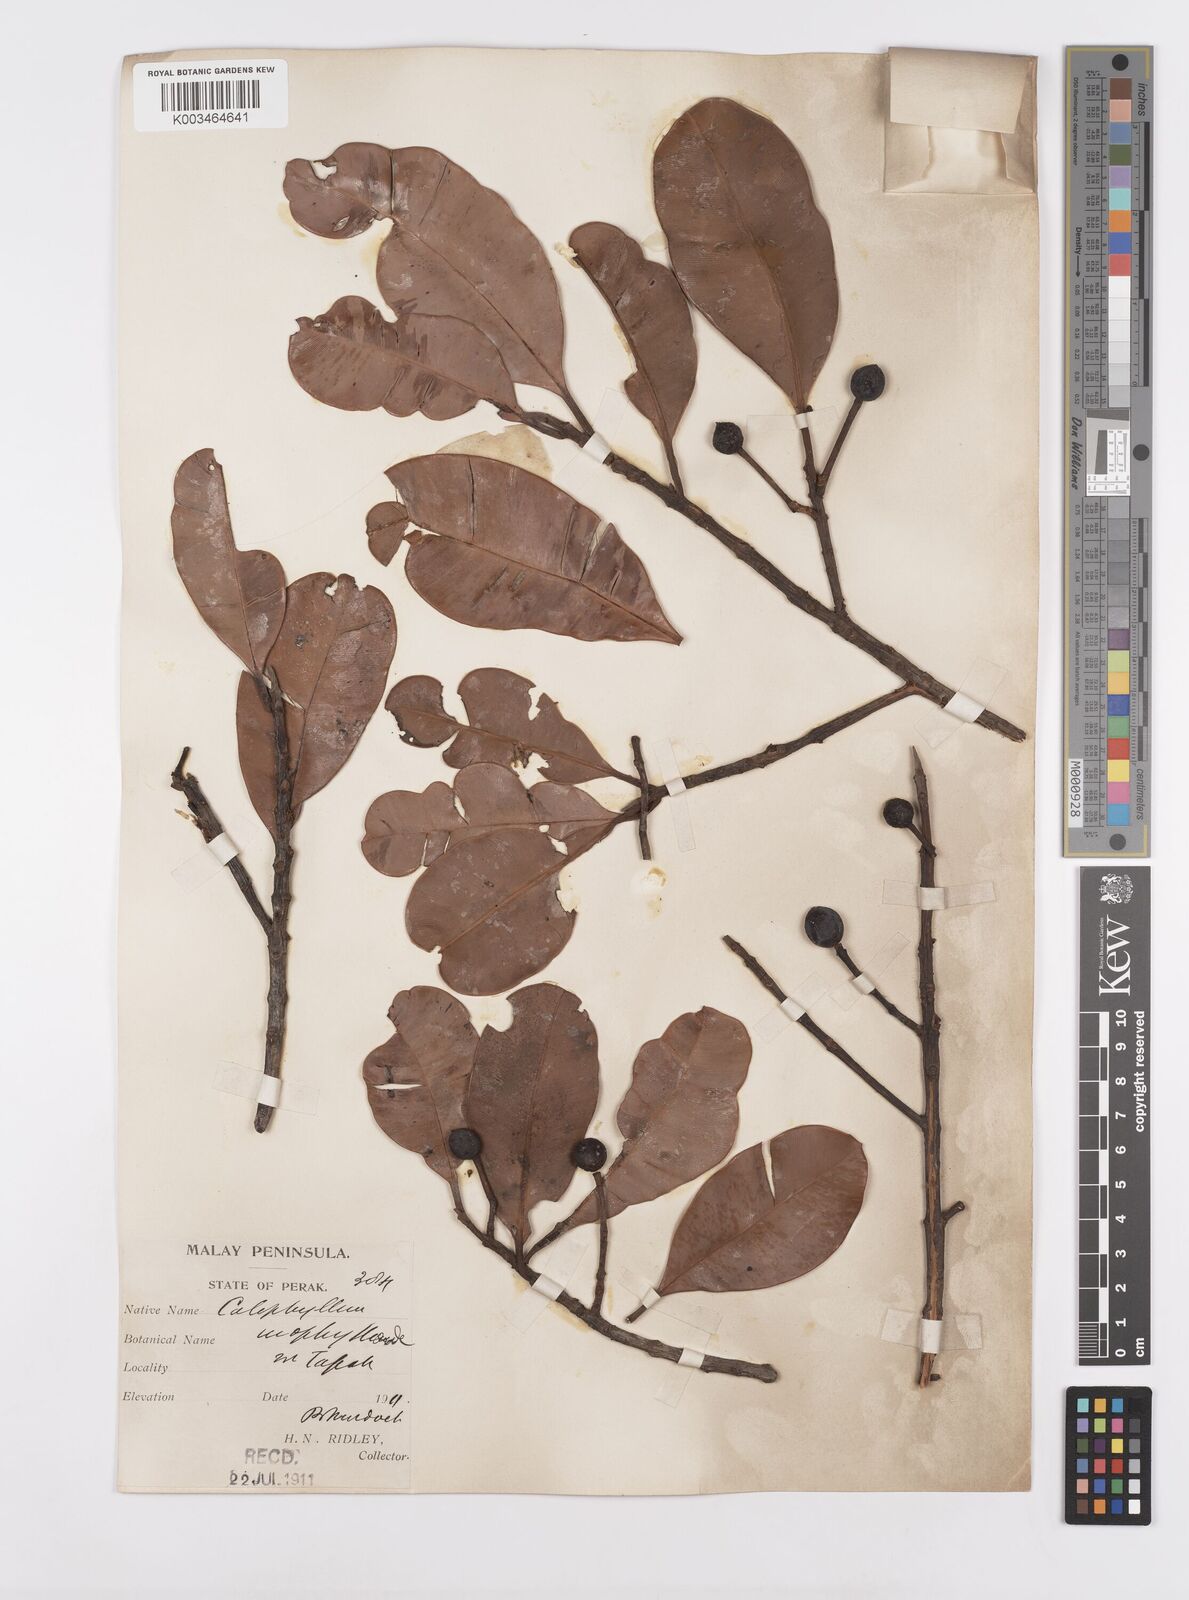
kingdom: Plantae
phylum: Tracheophyta
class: Magnoliopsida
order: Malpighiales
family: Calophyllaceae
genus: Calophyllum
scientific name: Calophyllum teysmannii
